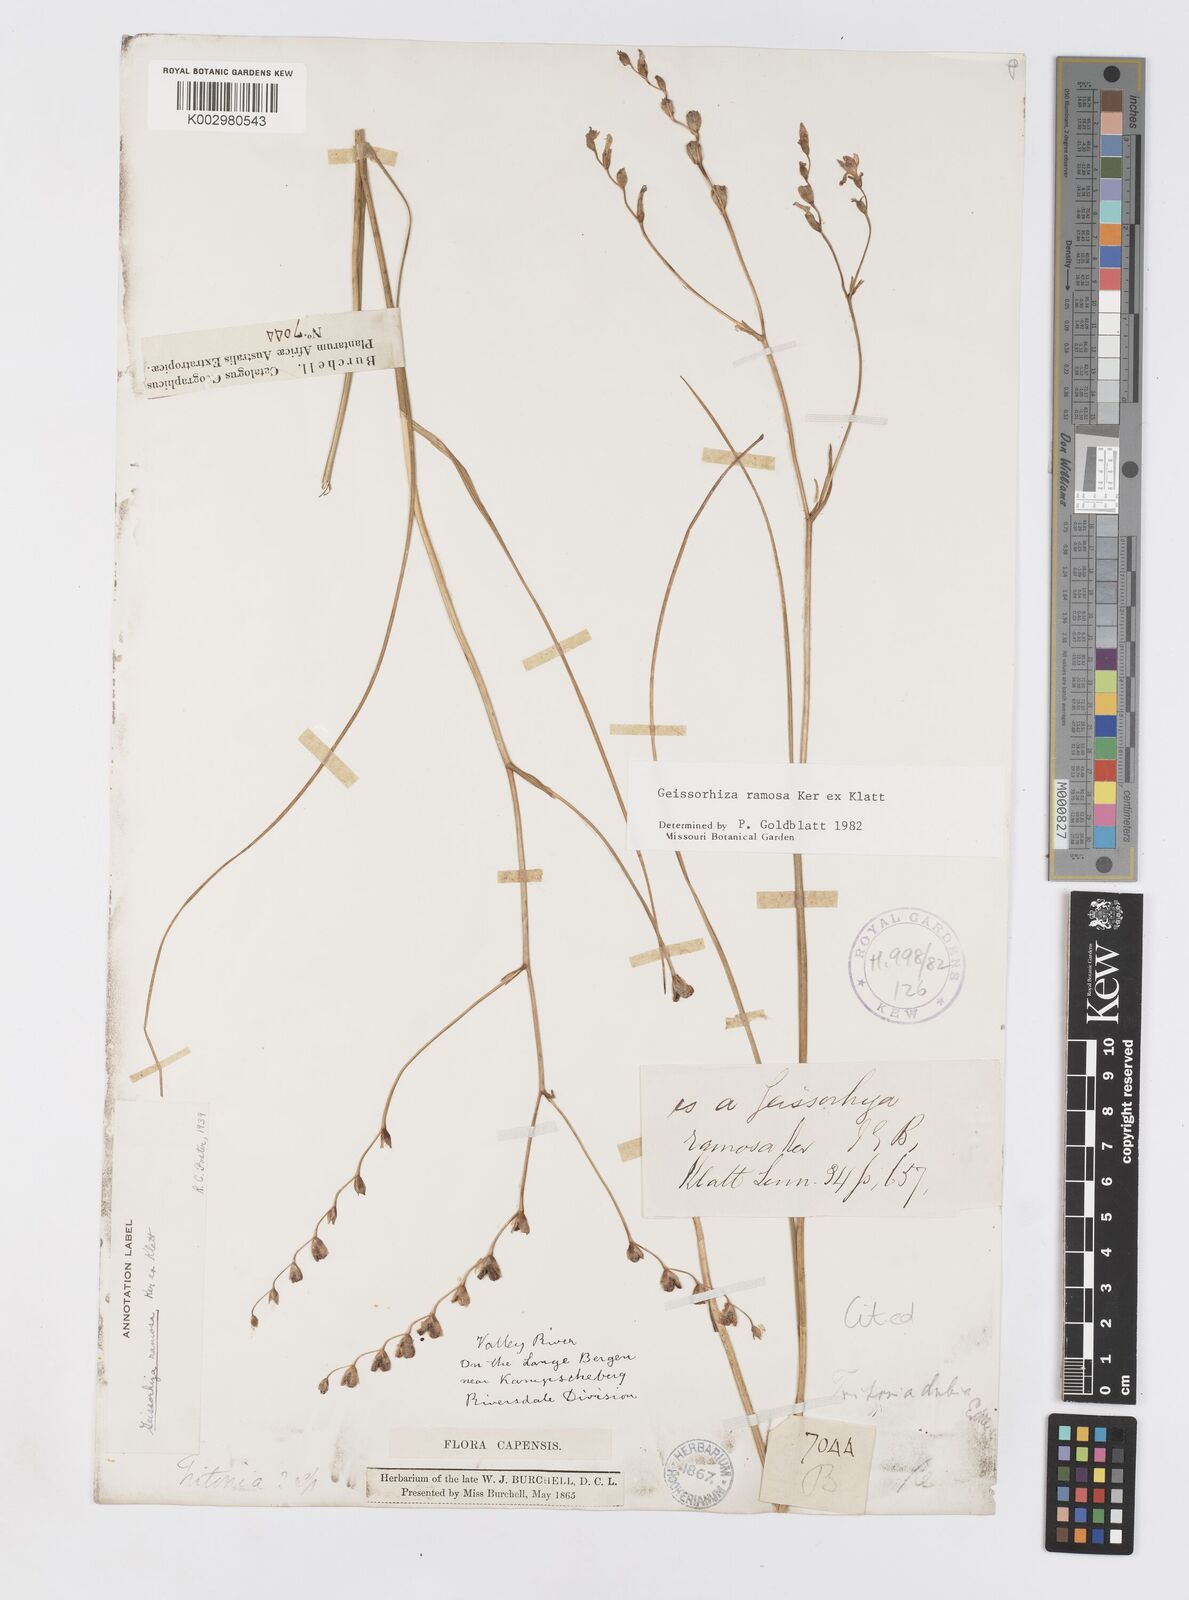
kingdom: Plantae
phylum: Tracheophyta
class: Liliopsida
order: Asparagales
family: Iridaceae
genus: Geissorhiza
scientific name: Geissorhiza ramosa
